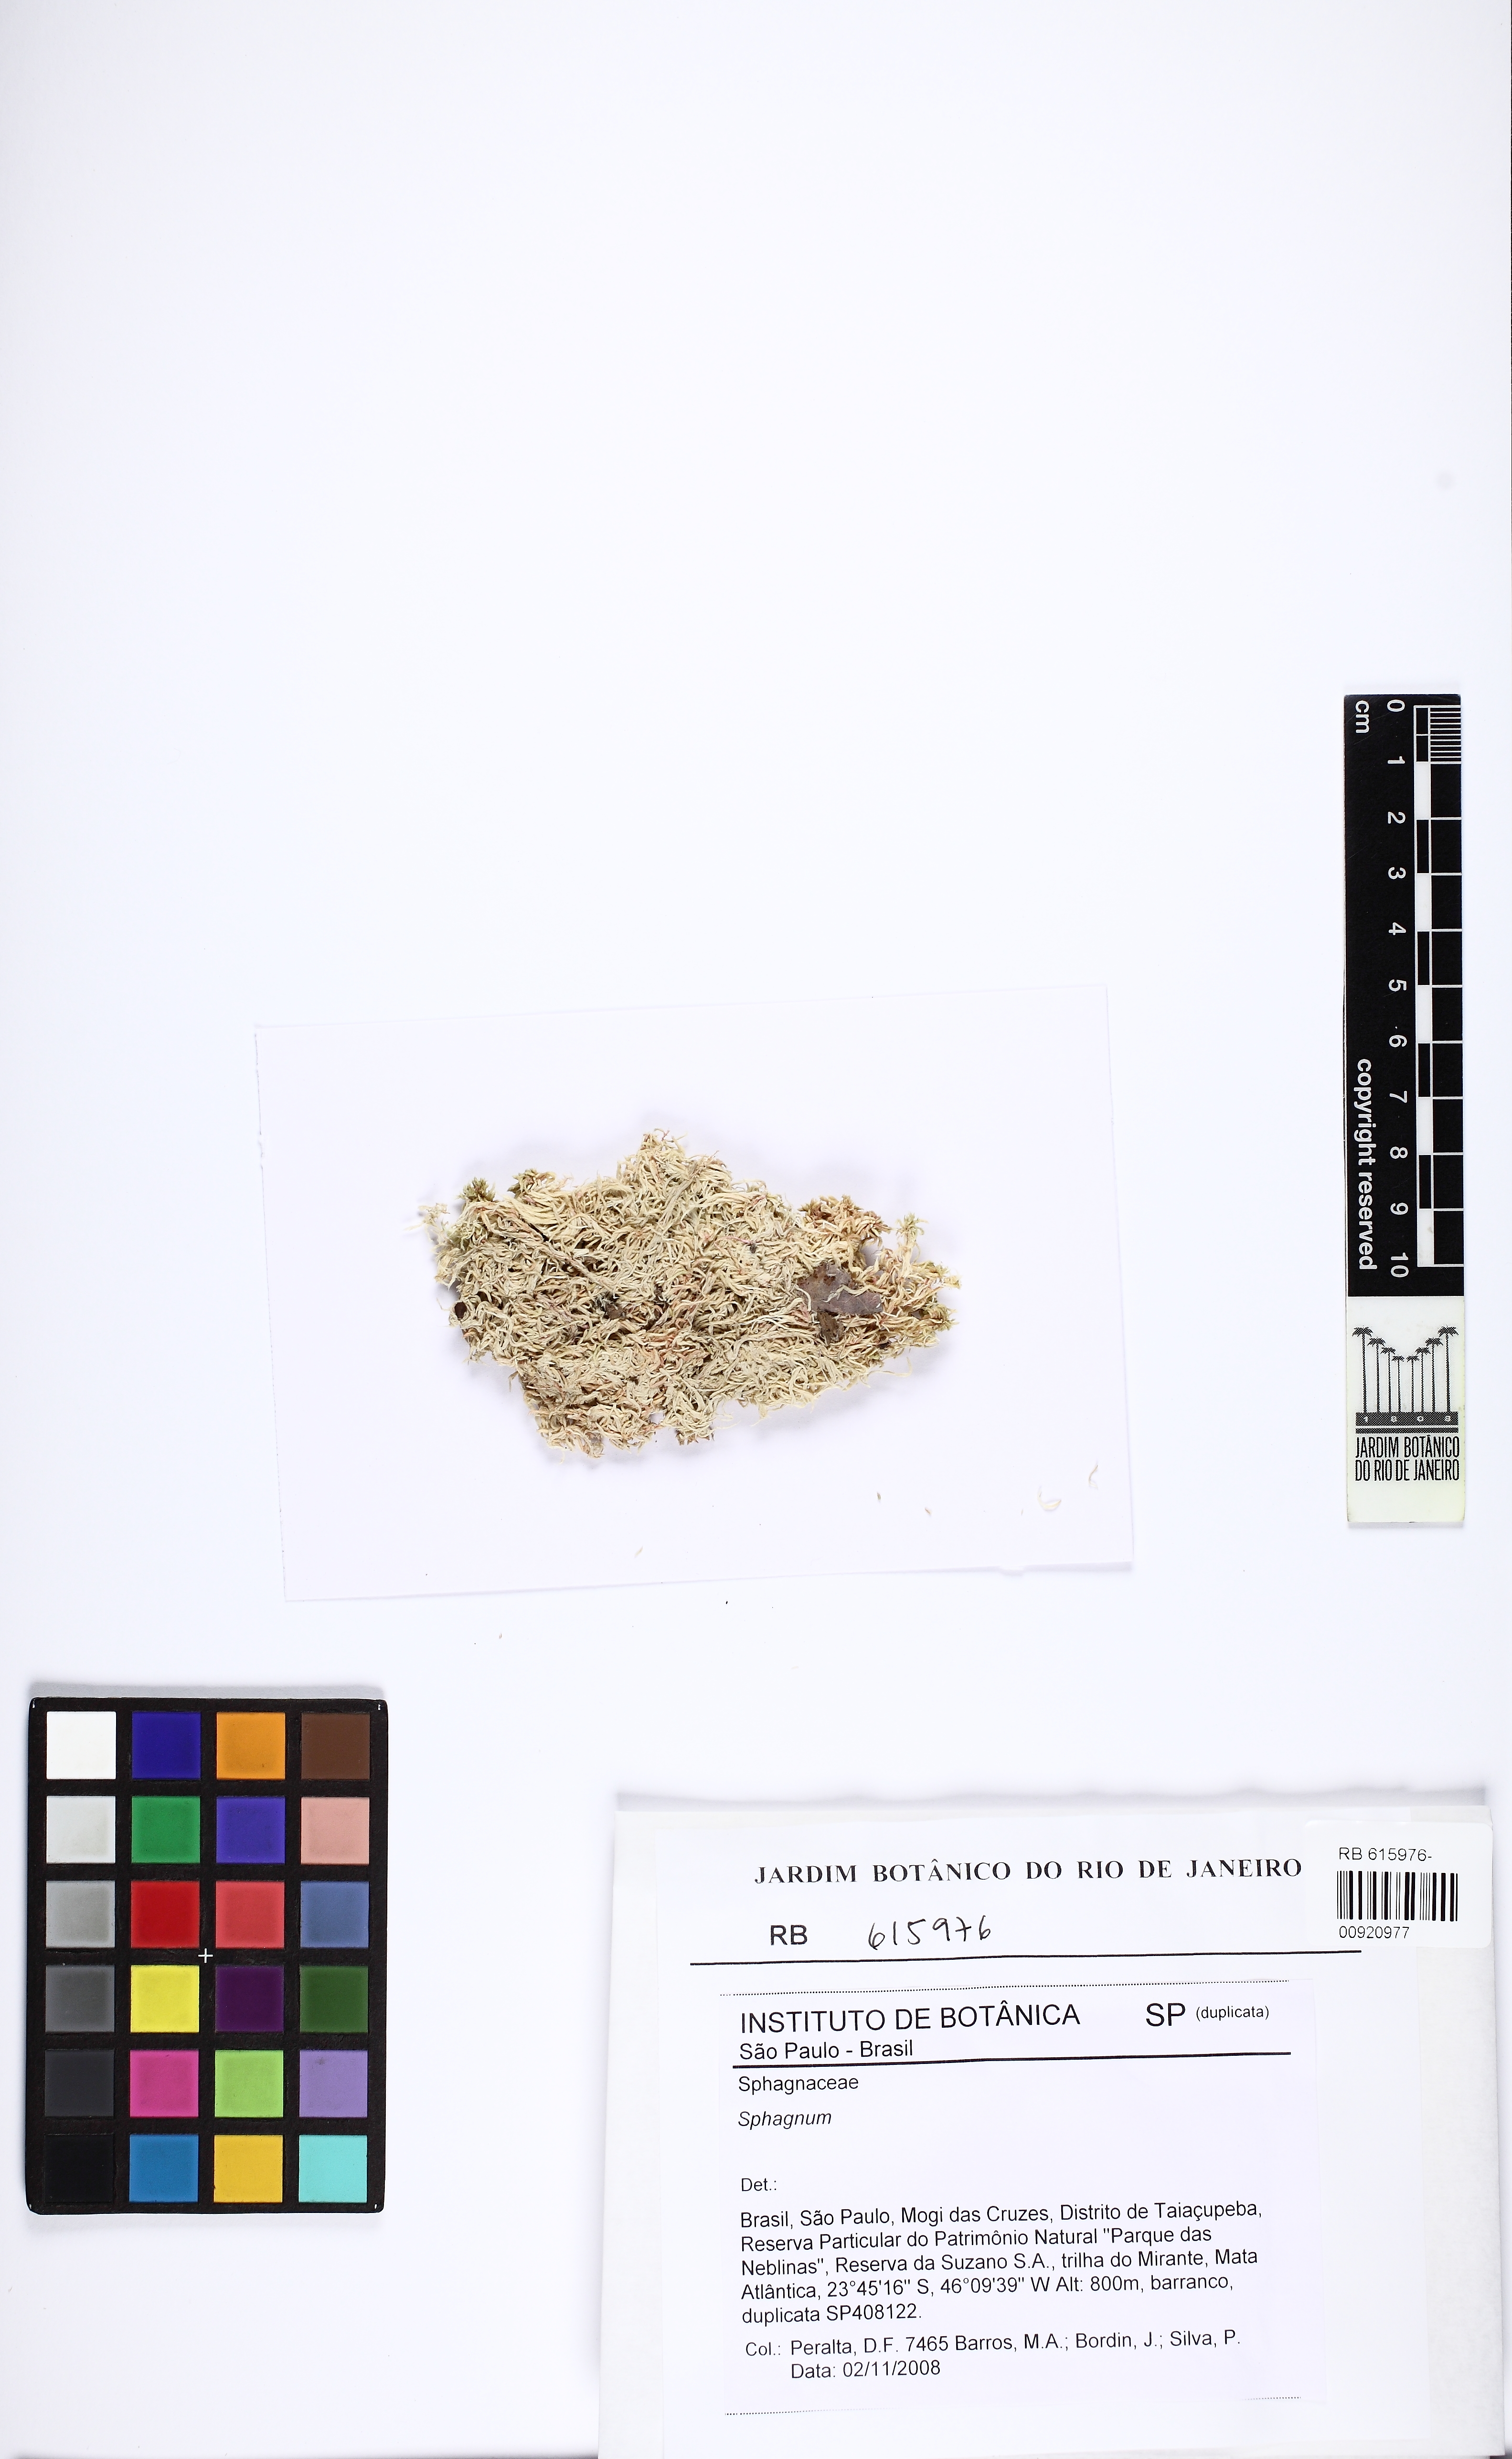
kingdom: Plantae
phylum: Bryophyta
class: Sphagnopsida
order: Sphagnales
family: Sphagnaceae
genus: Sphagnum
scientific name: Sphagnum aciphyllum
